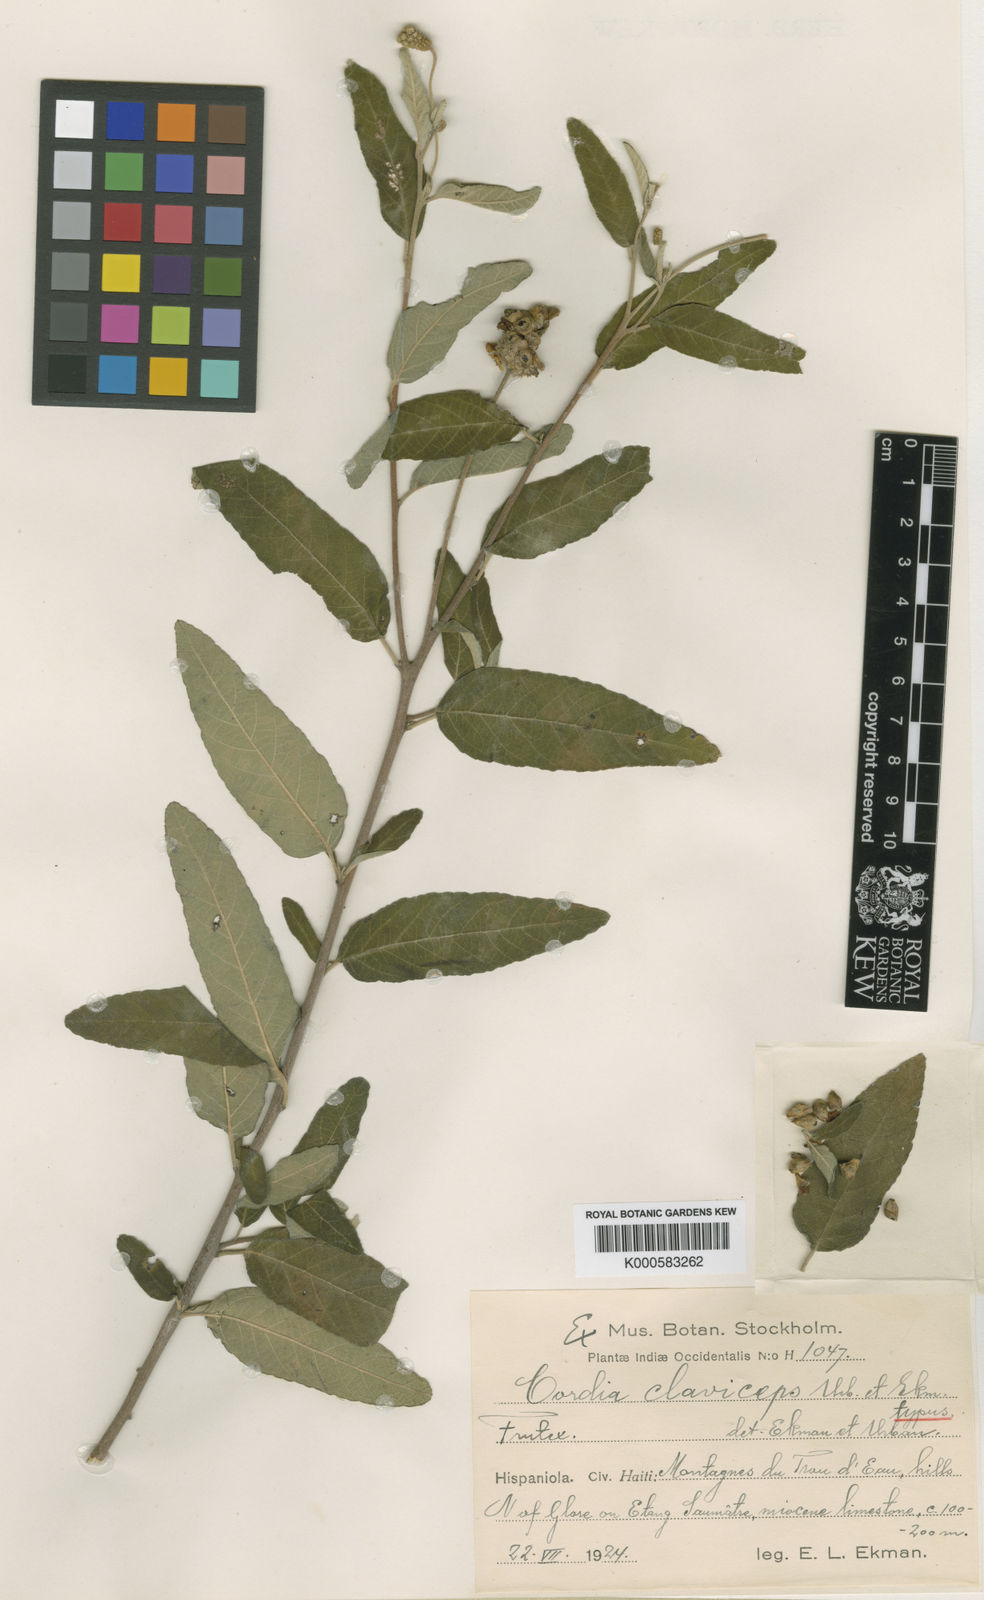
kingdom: Plantae
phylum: Tracheophyta
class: Magnoliopsida
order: Boraginales
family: Cordiaceae
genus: Varronia
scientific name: Varronia claviceps
